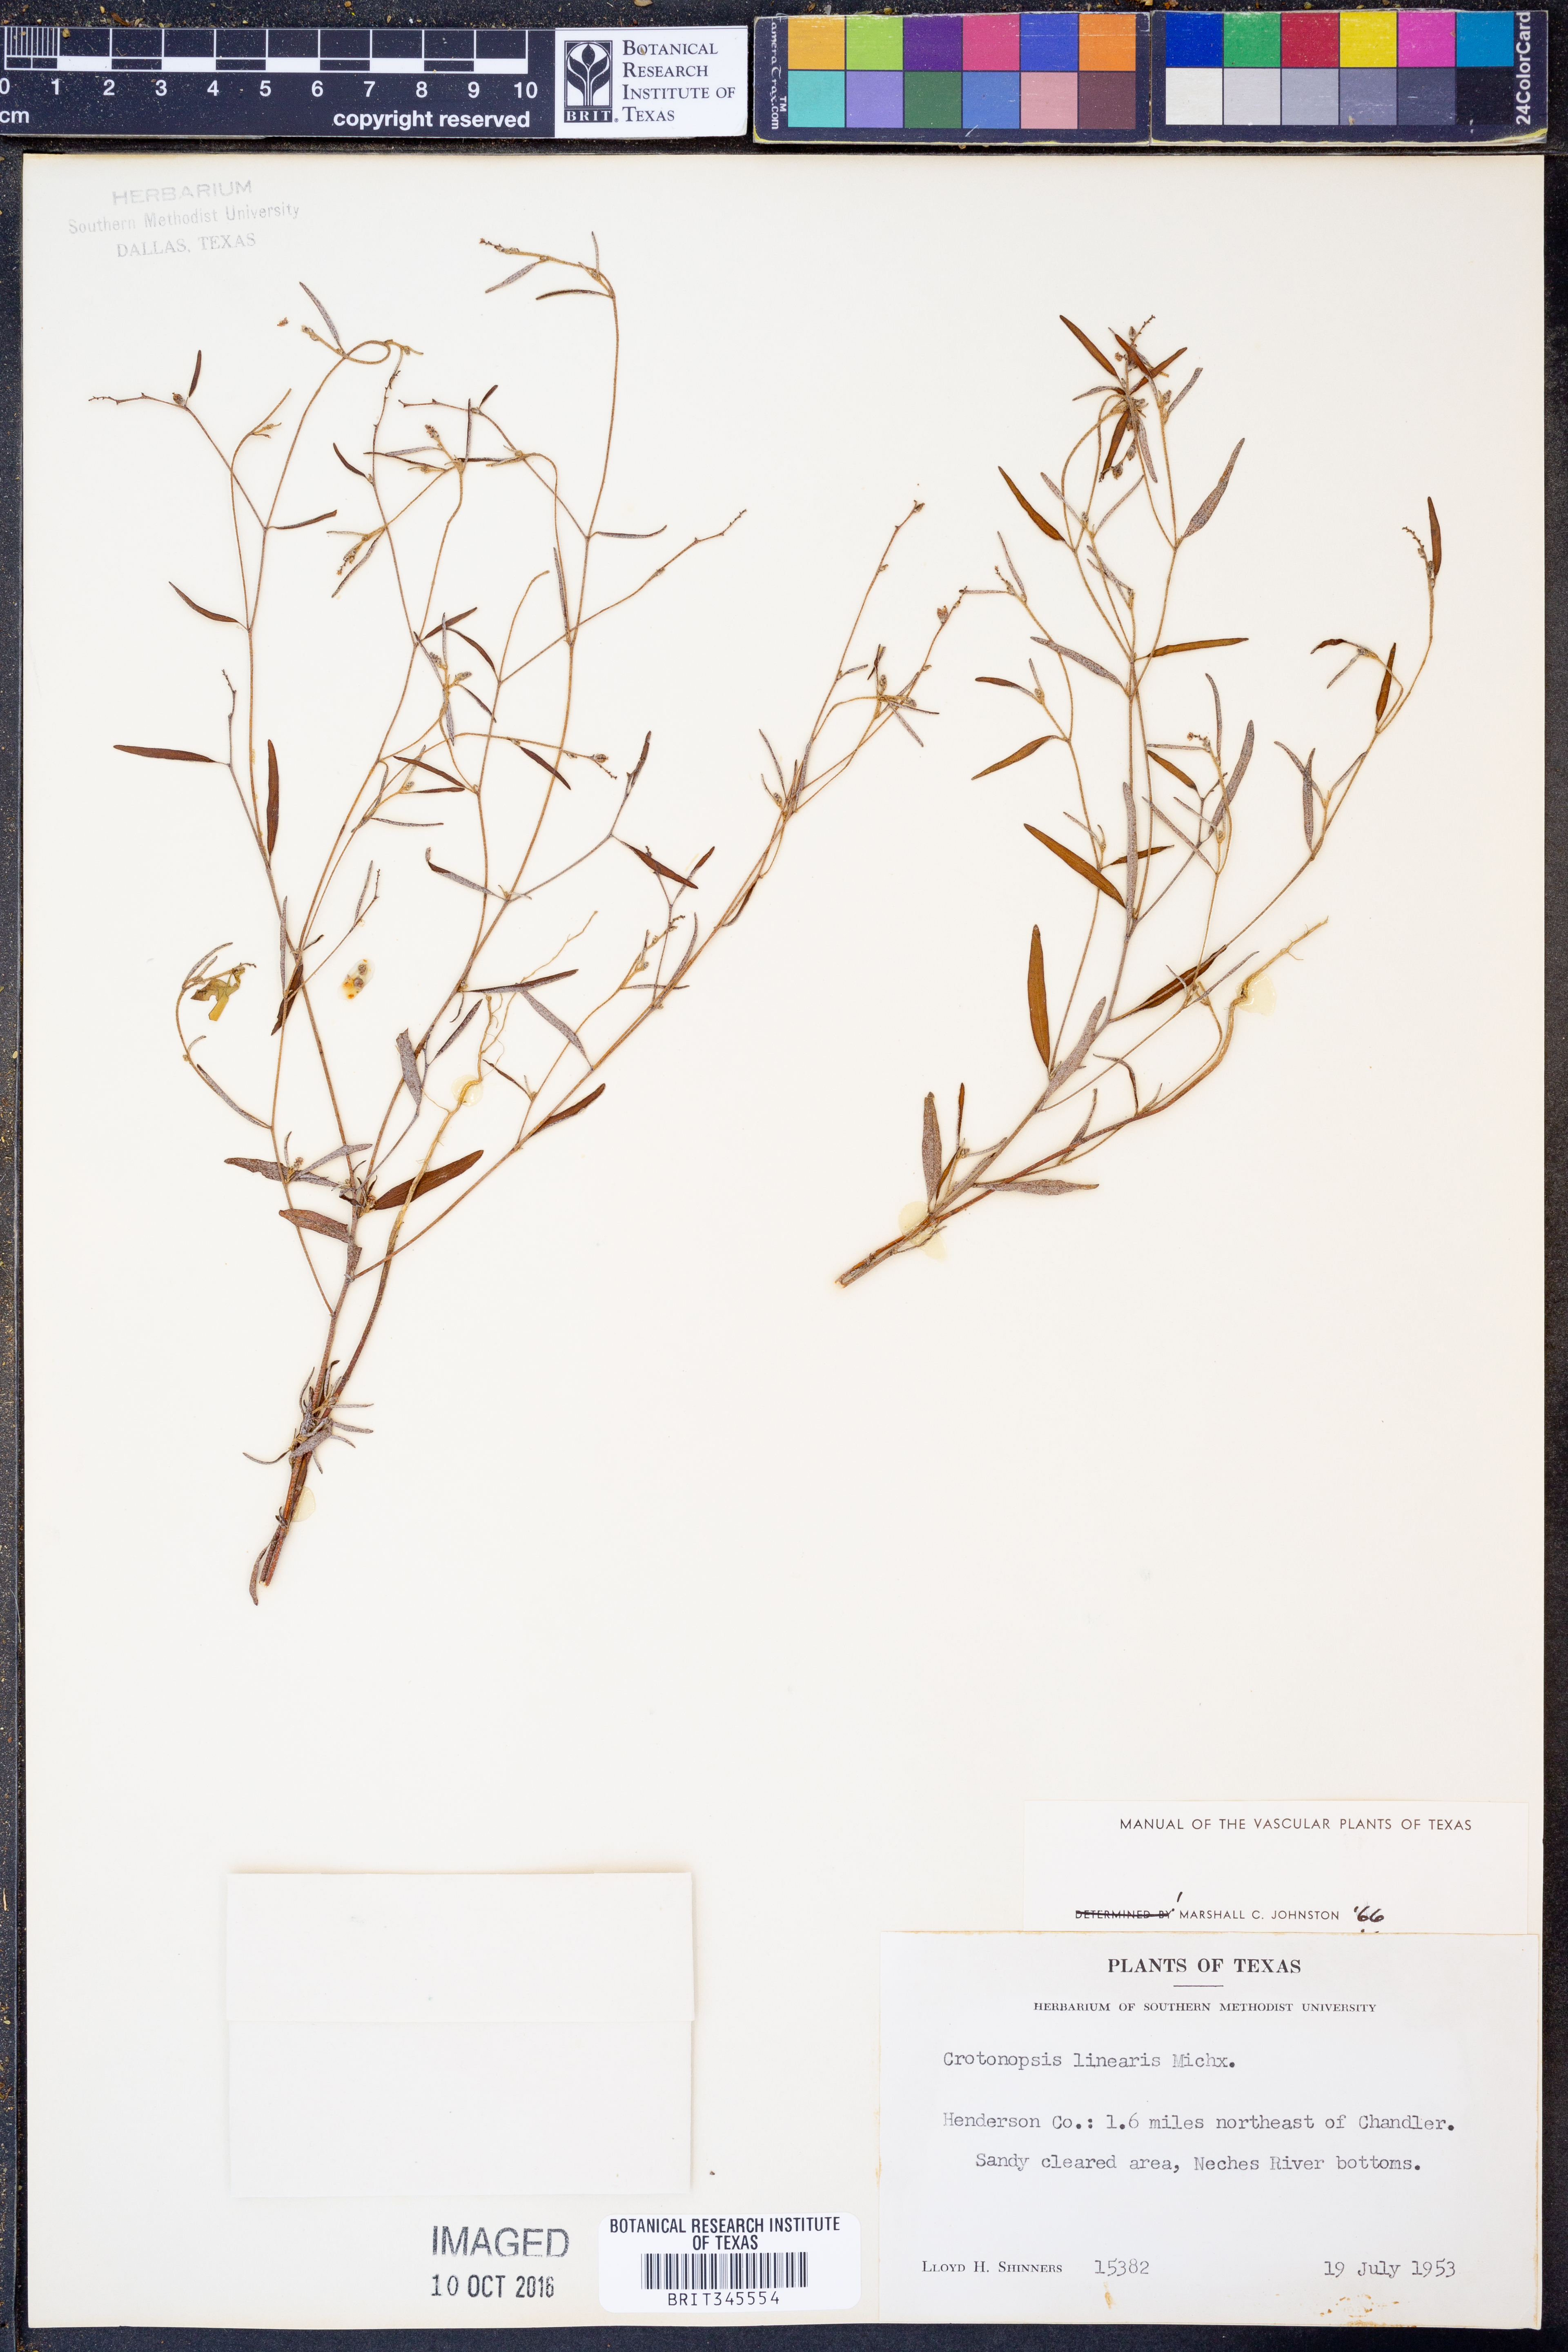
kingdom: Plantae
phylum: Tracheophyta
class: Magnoliopsida
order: Malpighiales
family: Euphorbiaceae
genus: Croton
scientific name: Croton michauxii
